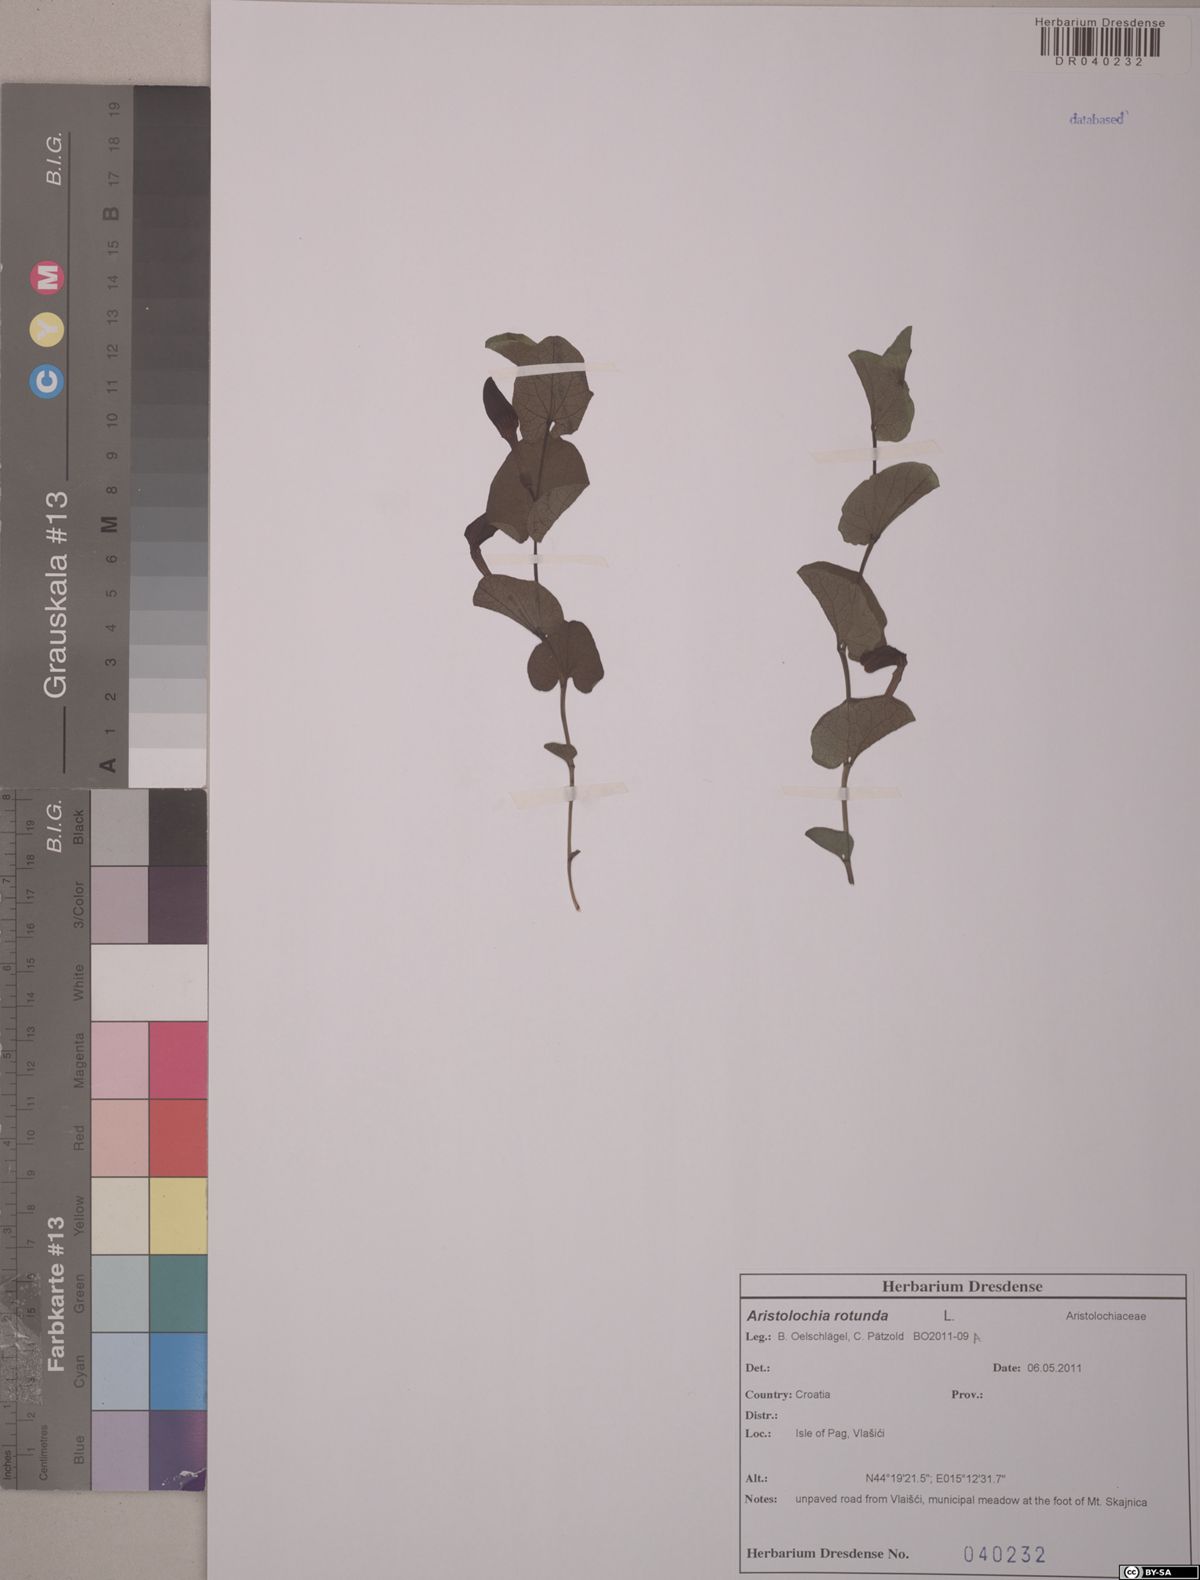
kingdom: Plantae
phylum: Tracheophyta
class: Magnoliopsida
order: Piperales
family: Aristolochiaceae
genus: Aristolochia
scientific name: Aristolochia rotunda
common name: Smearwort
